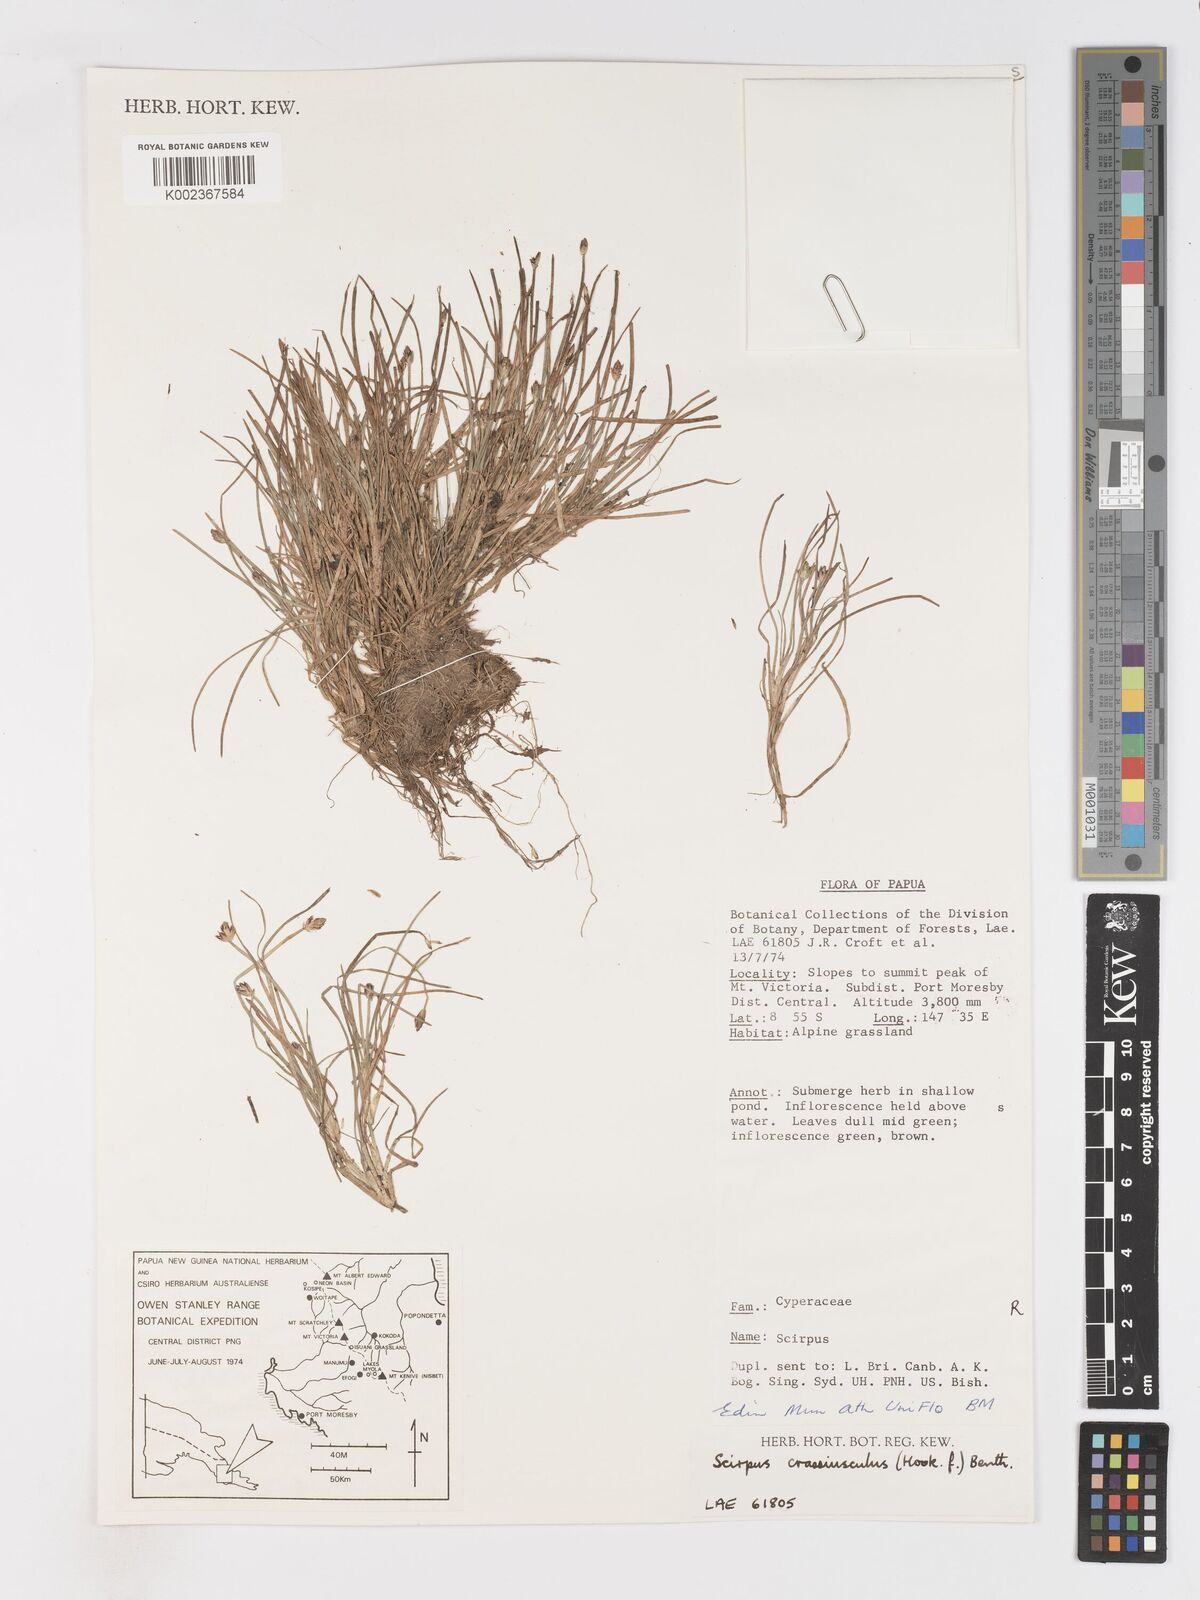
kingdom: Plantae
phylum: Tracheophyta
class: Liliopsida
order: Poales
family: Cyperaceae
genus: Isolepis
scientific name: Isolepis crassiuscula
